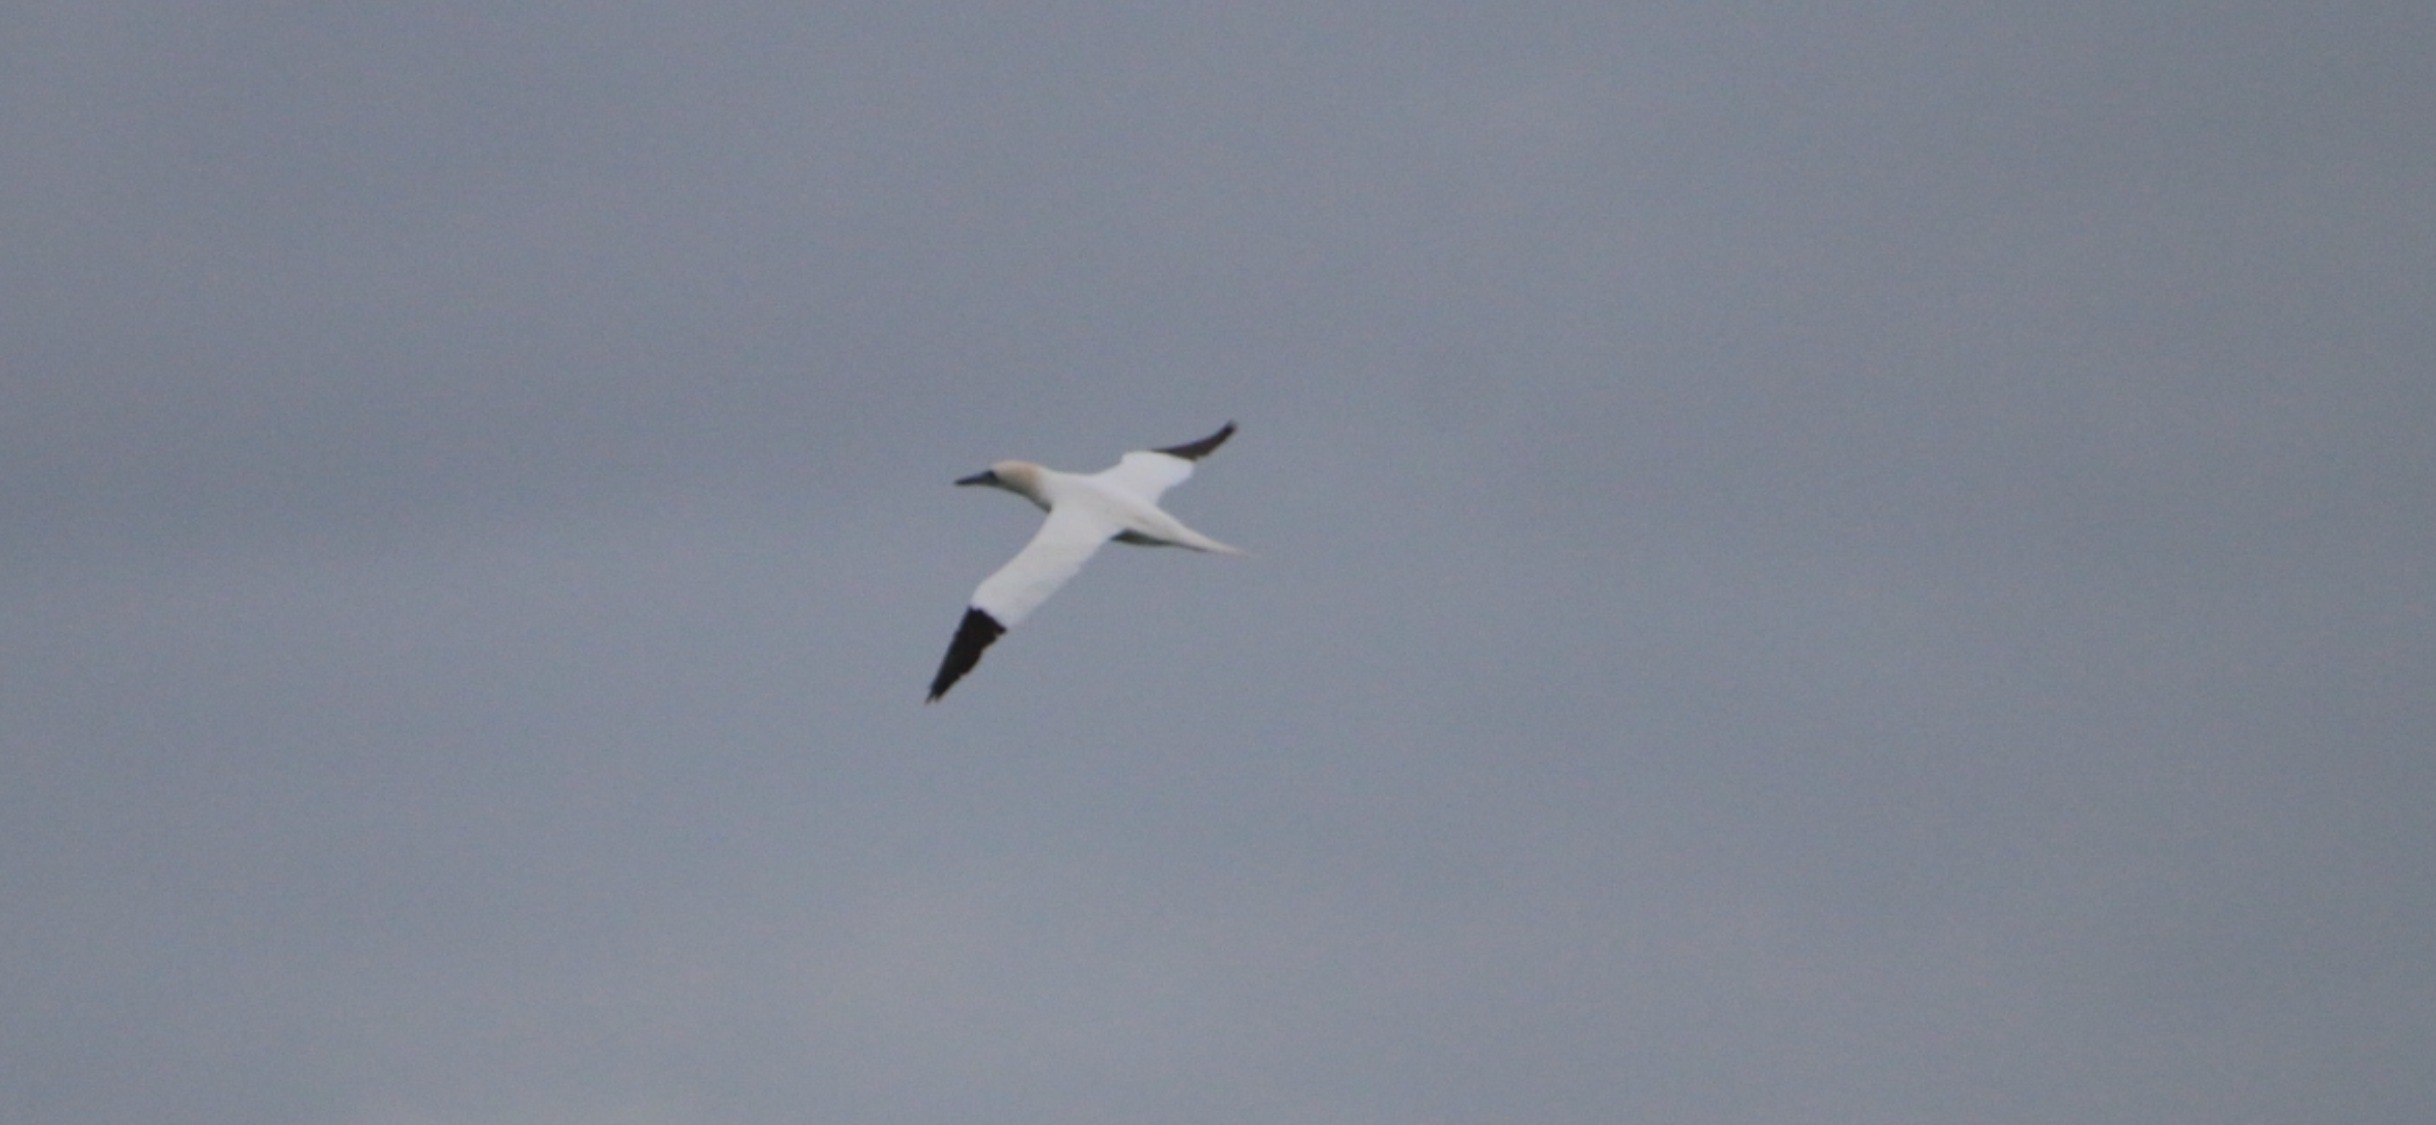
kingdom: Animalia
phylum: Chordata
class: Aves
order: Suliformes
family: Sulidae
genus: Morus
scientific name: Morus bassanus
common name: Sule
